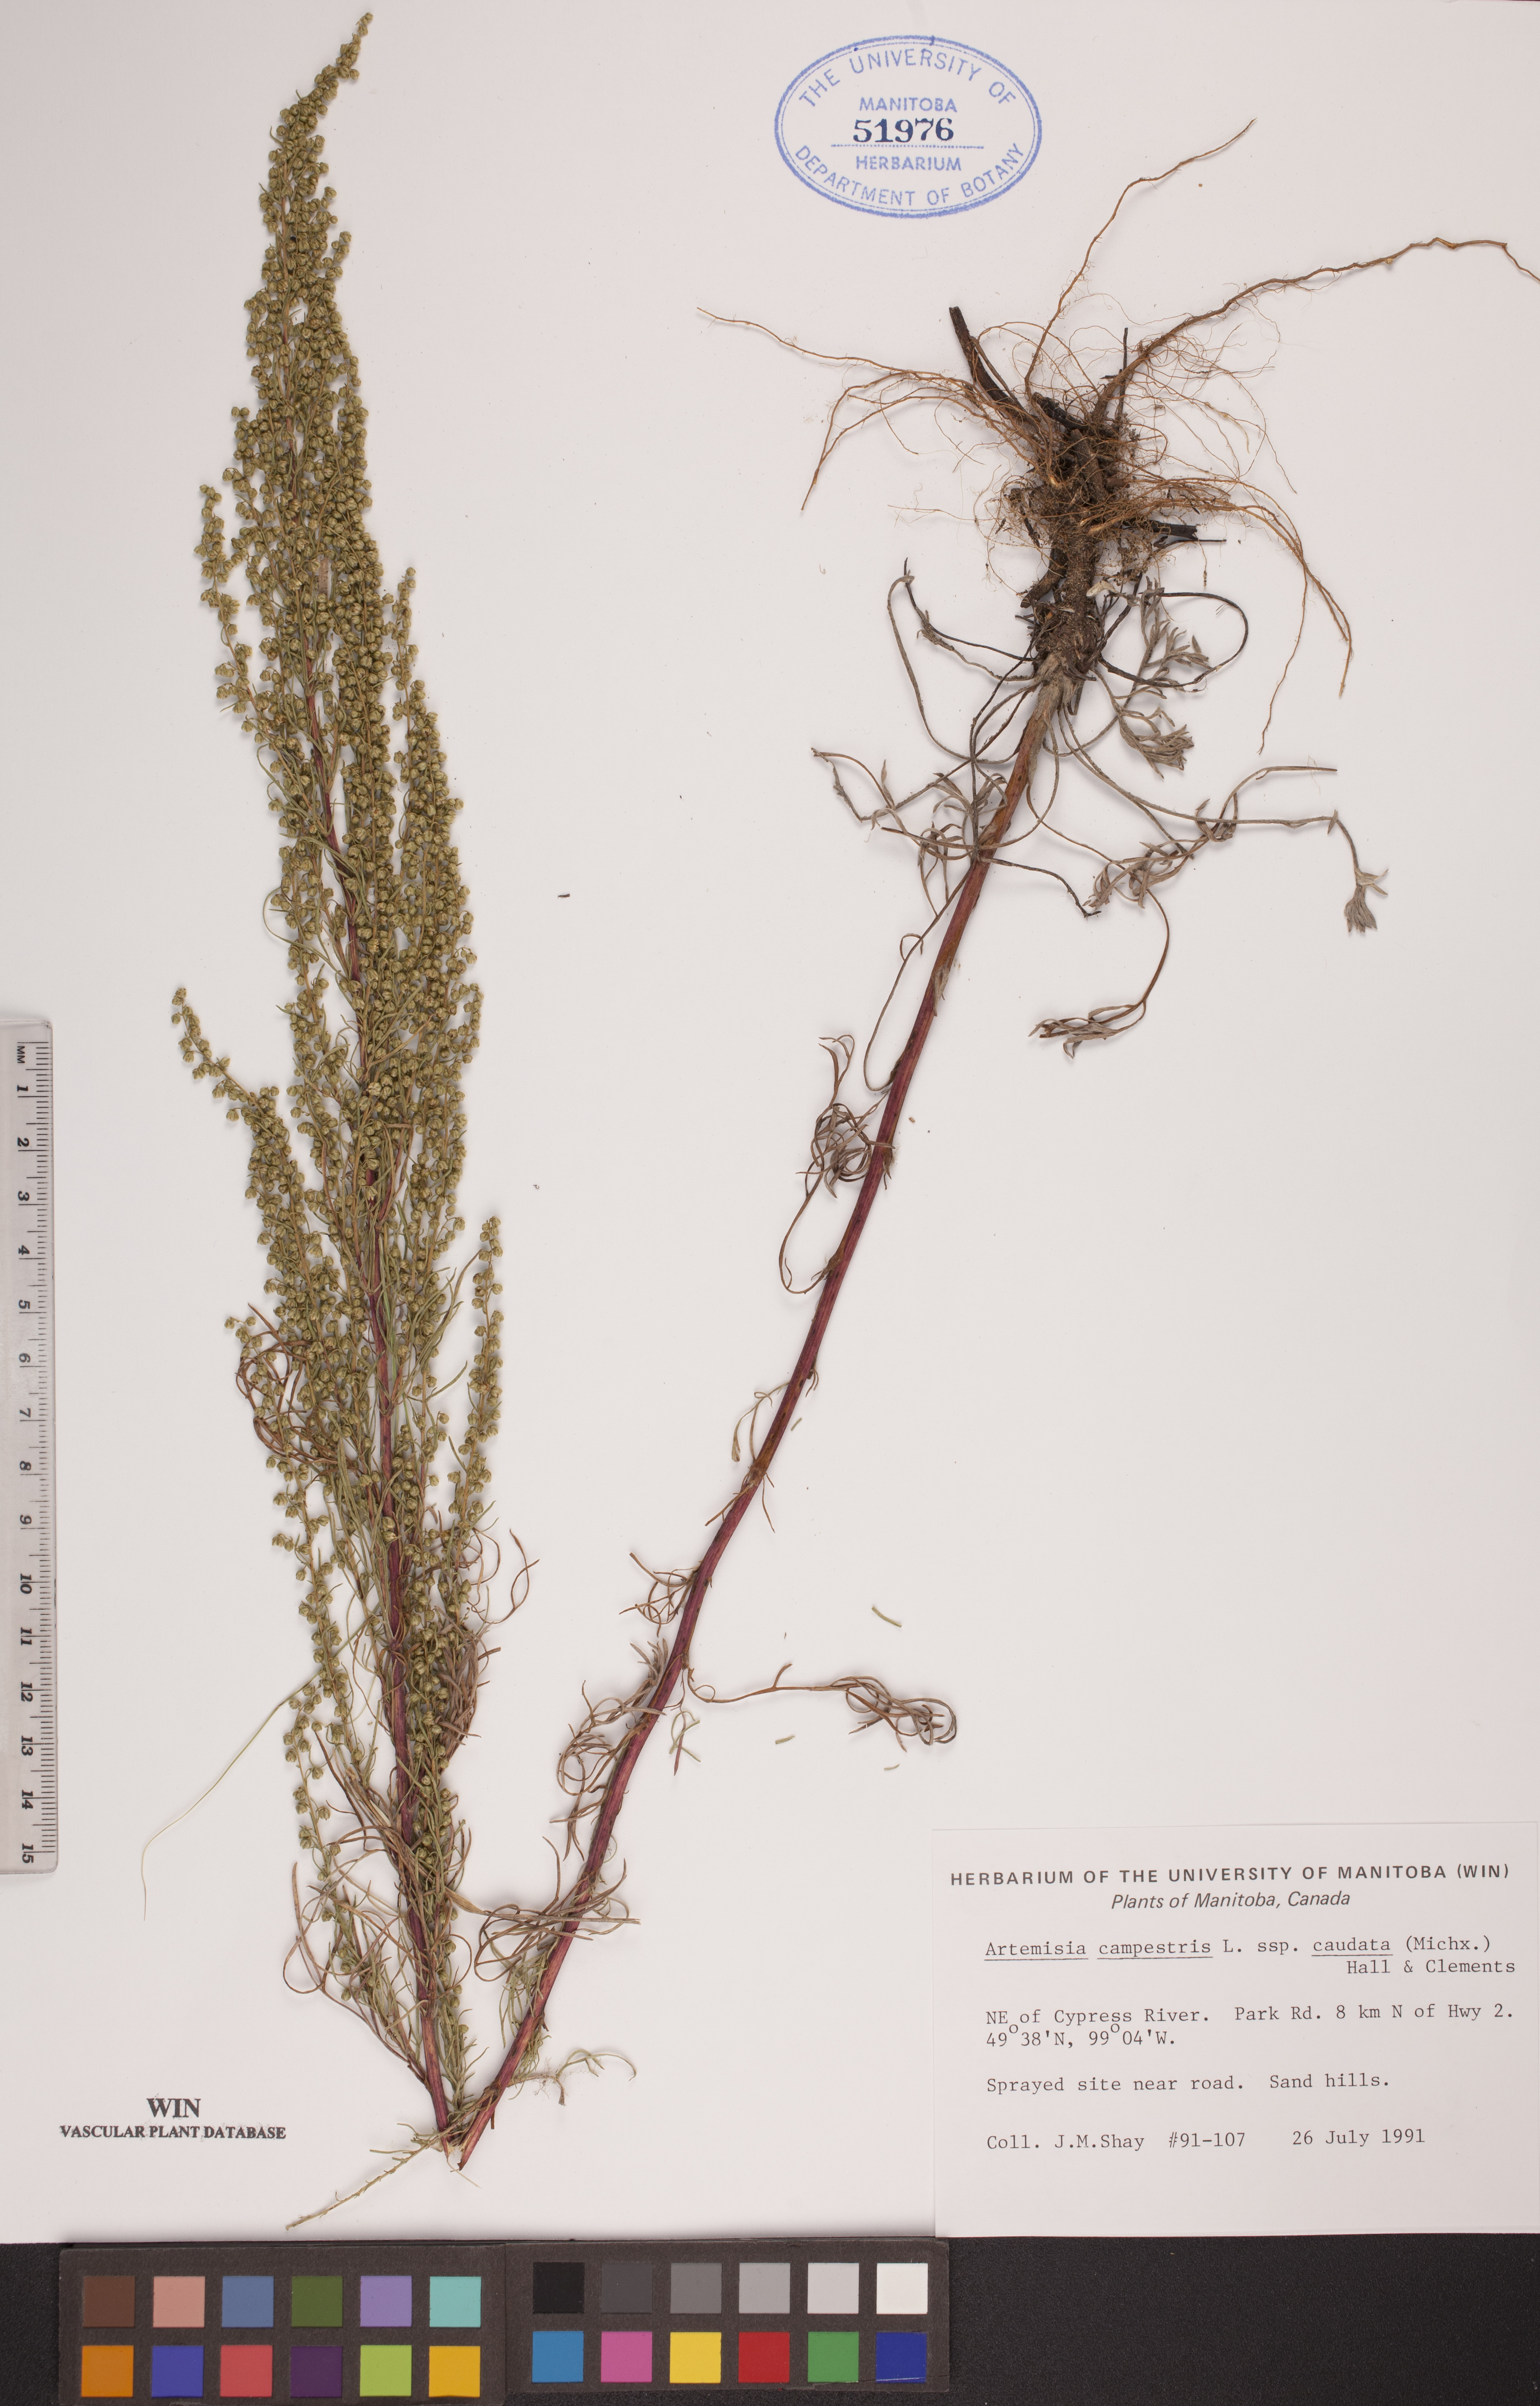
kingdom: Plantae
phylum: Tracheophyta
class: Magnoliopsida
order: Asterales
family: Asteraceae
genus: Artemisia
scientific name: Artemisia campestris
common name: Field wormwood
